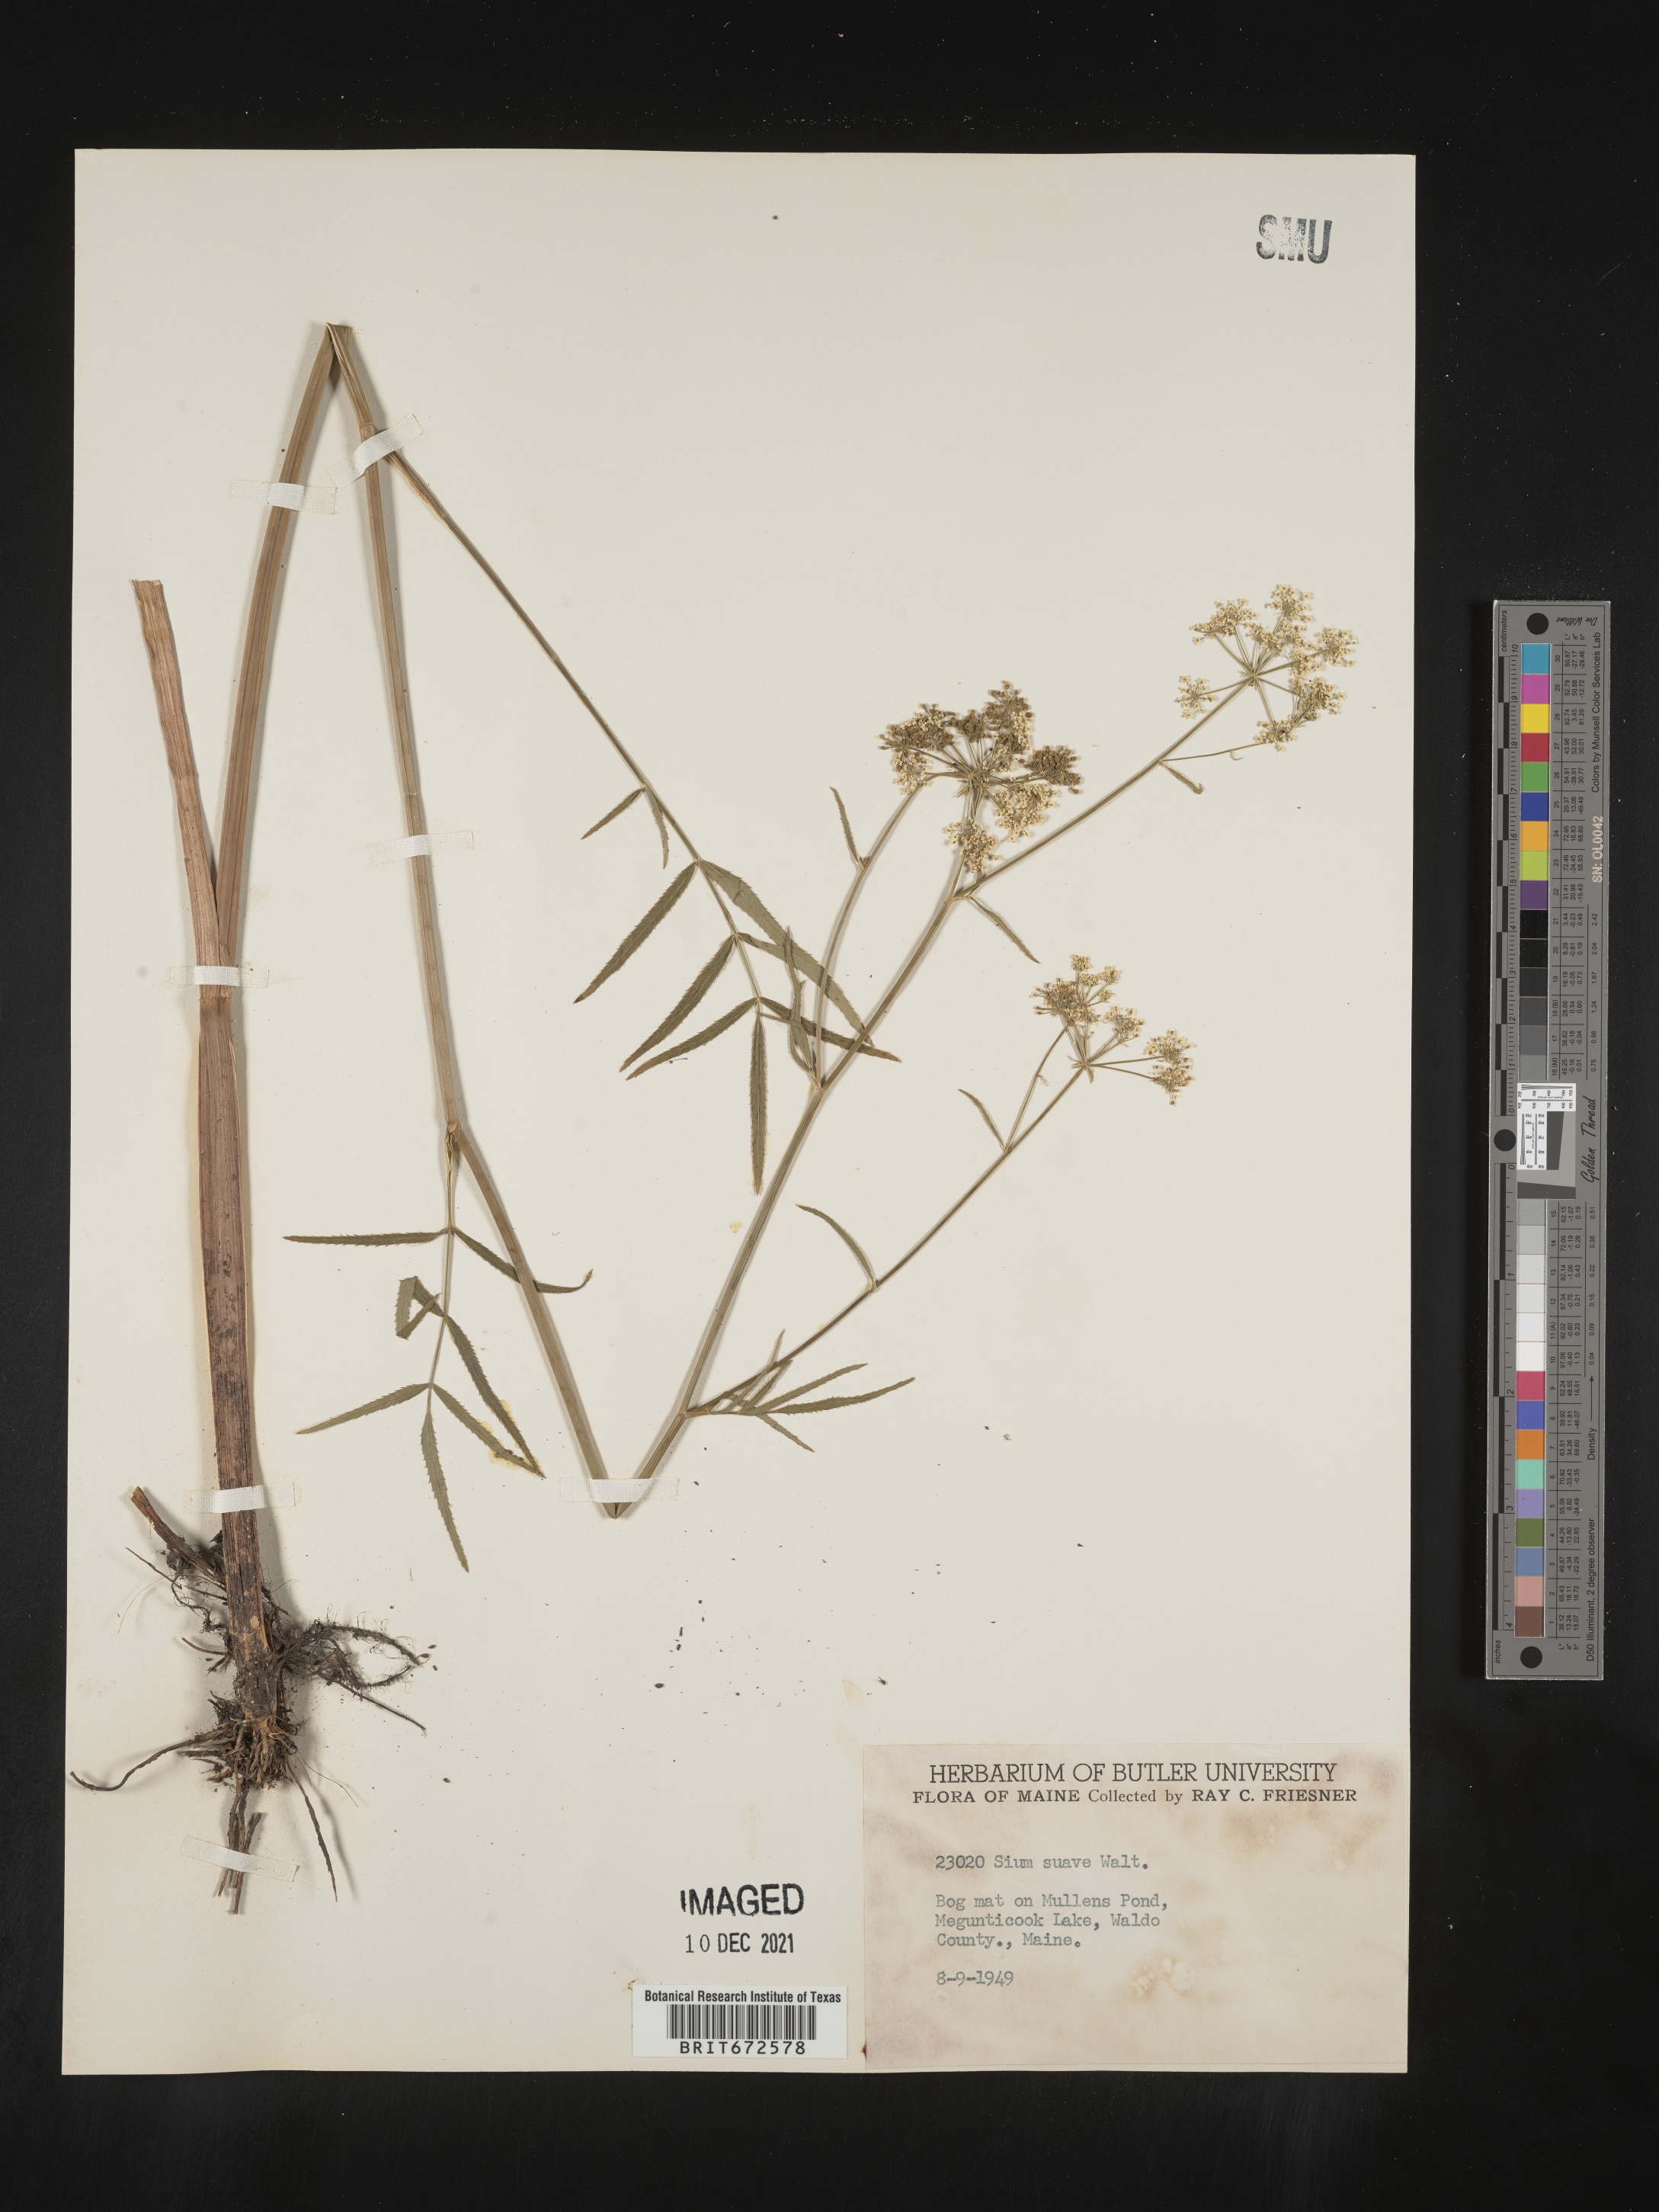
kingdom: Plantae
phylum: Tracheophyta
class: Magnoliopsida
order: Apiales
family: Apiaceae
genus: Sium
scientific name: Sium suave
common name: Hemlock water-parsnip
